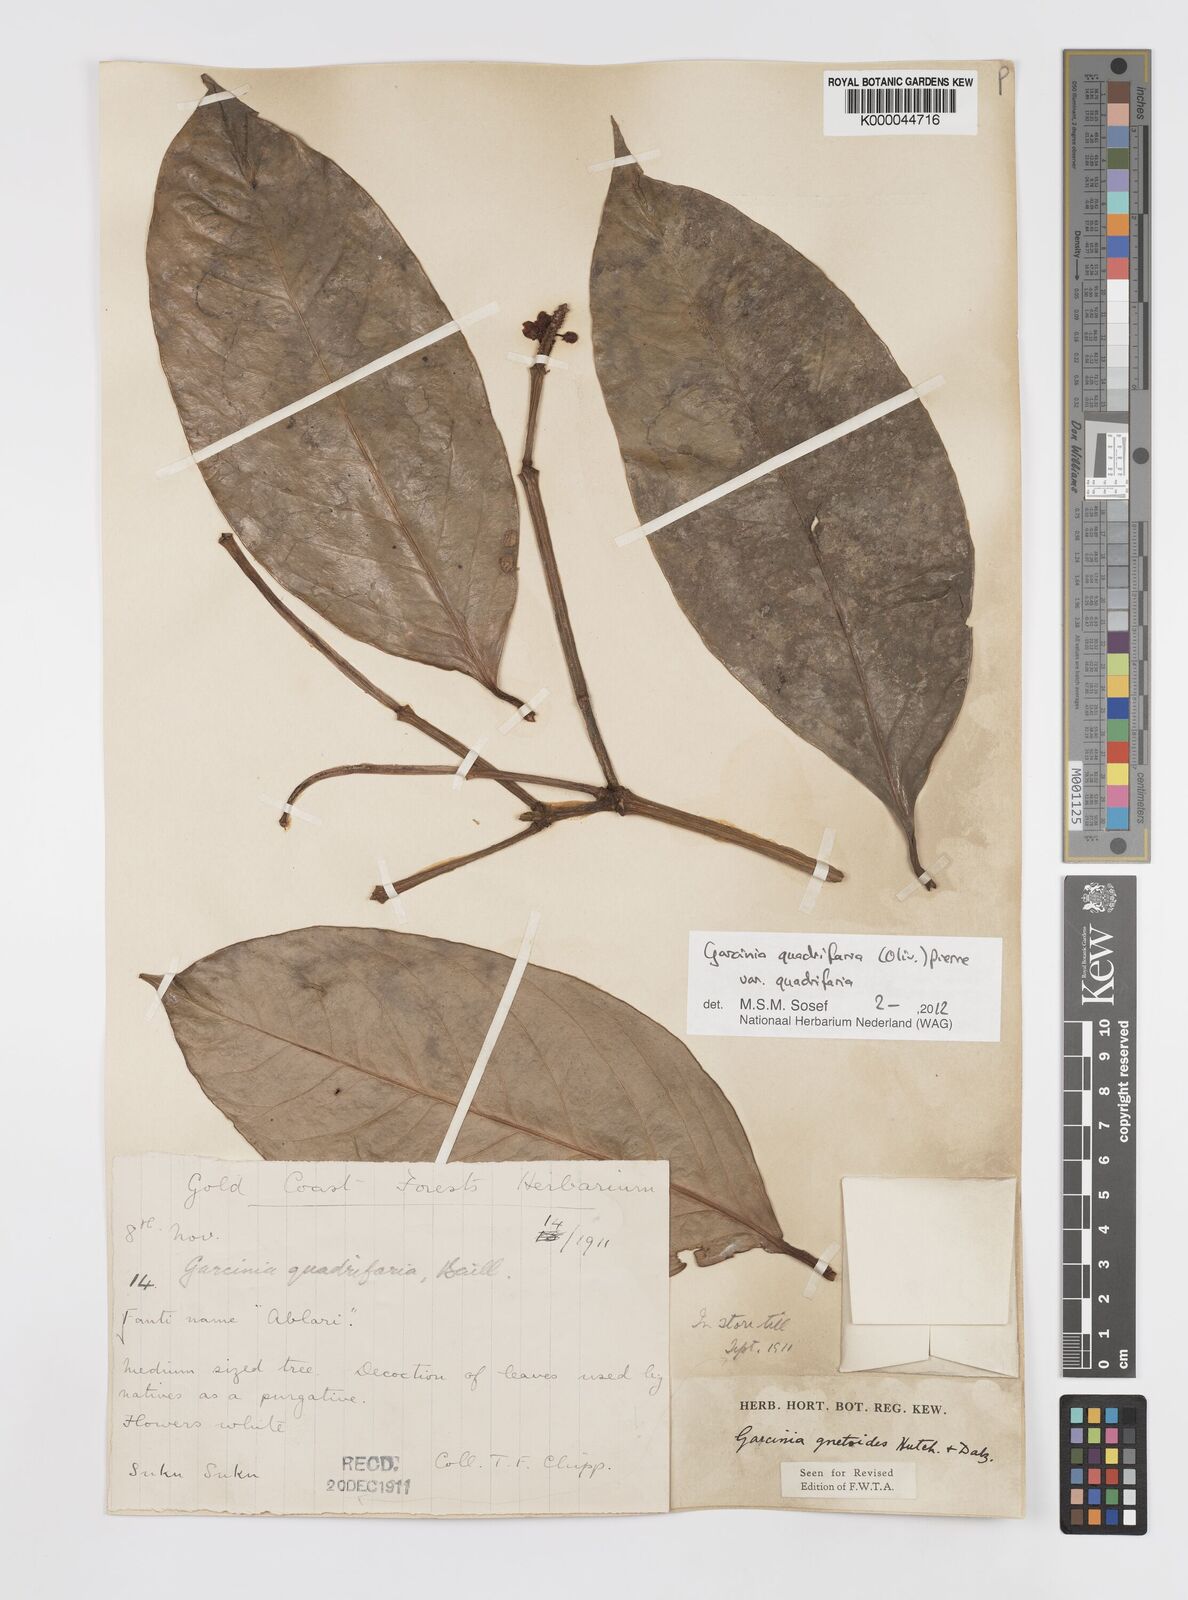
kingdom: Plantae
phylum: Tracheophyta
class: Magnoliopsida
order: Malpighiales
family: Clusiaceae
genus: Garcinia
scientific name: Garcinia gnetoides
